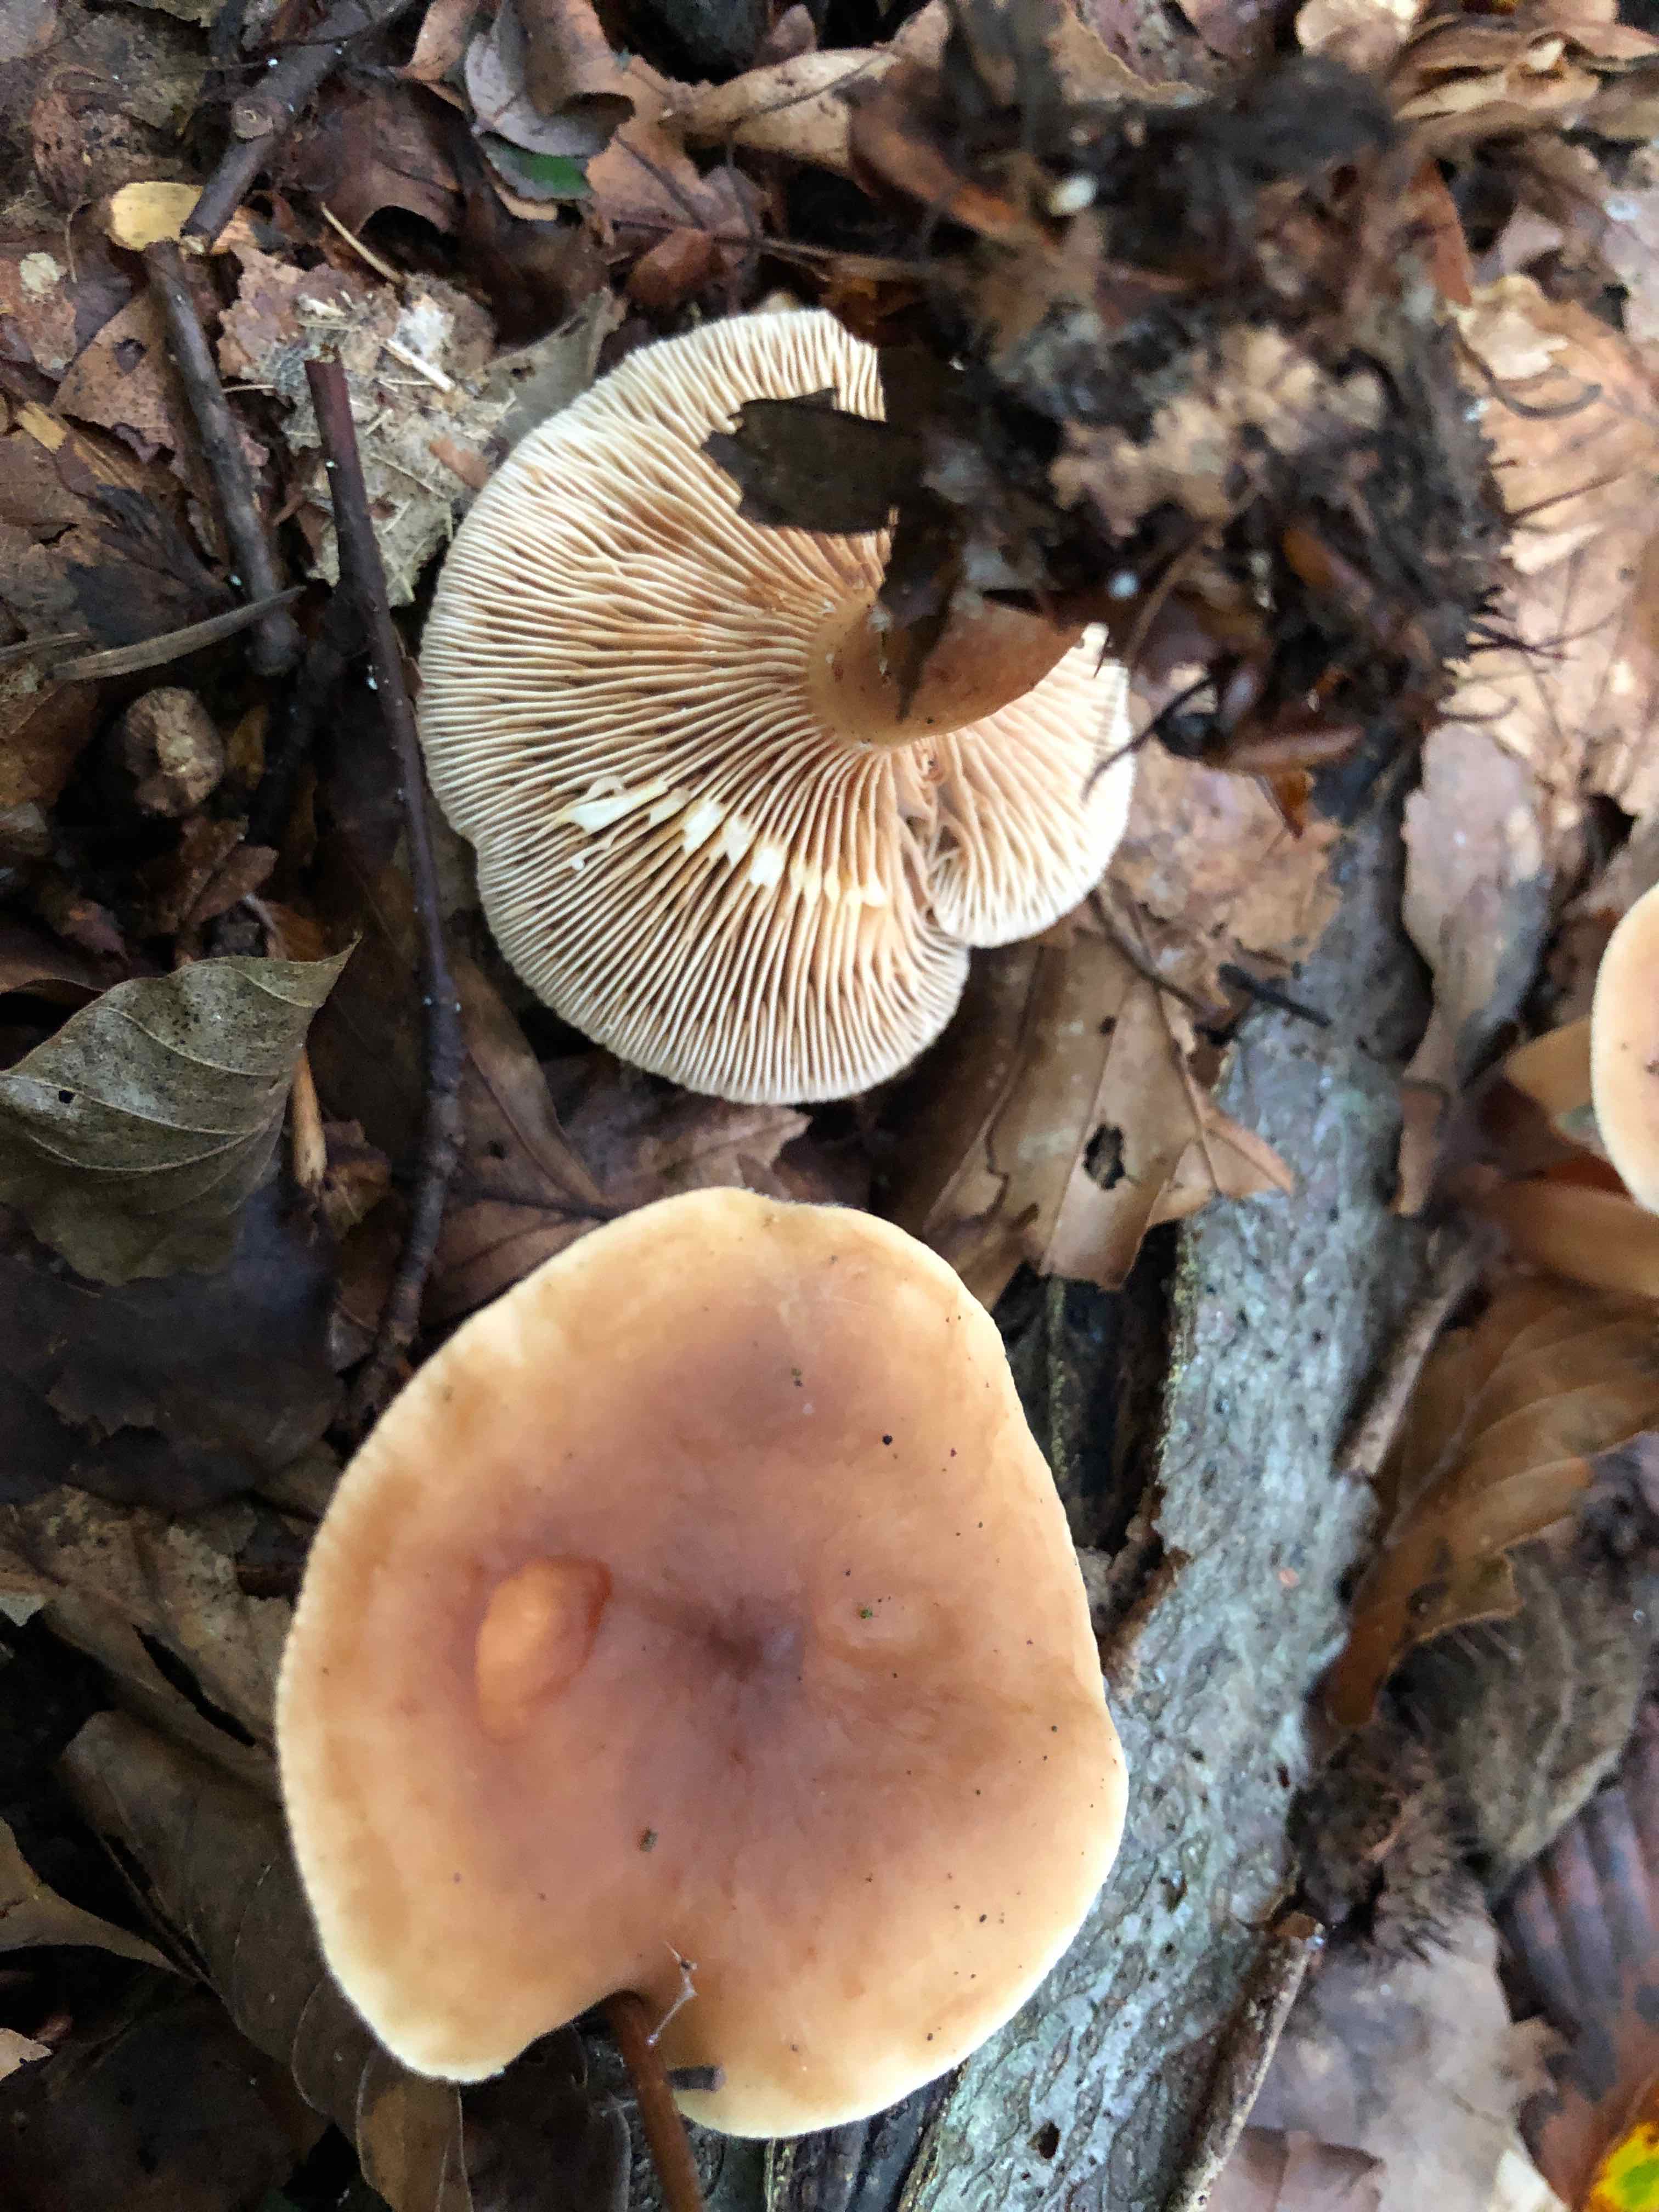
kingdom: Fungi
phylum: Basidiomycota
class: Agaricomycetes
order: Russulales
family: Russulaceae
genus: Lactarius
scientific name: Lactarius subdulcis
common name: sødlig mælkehat
